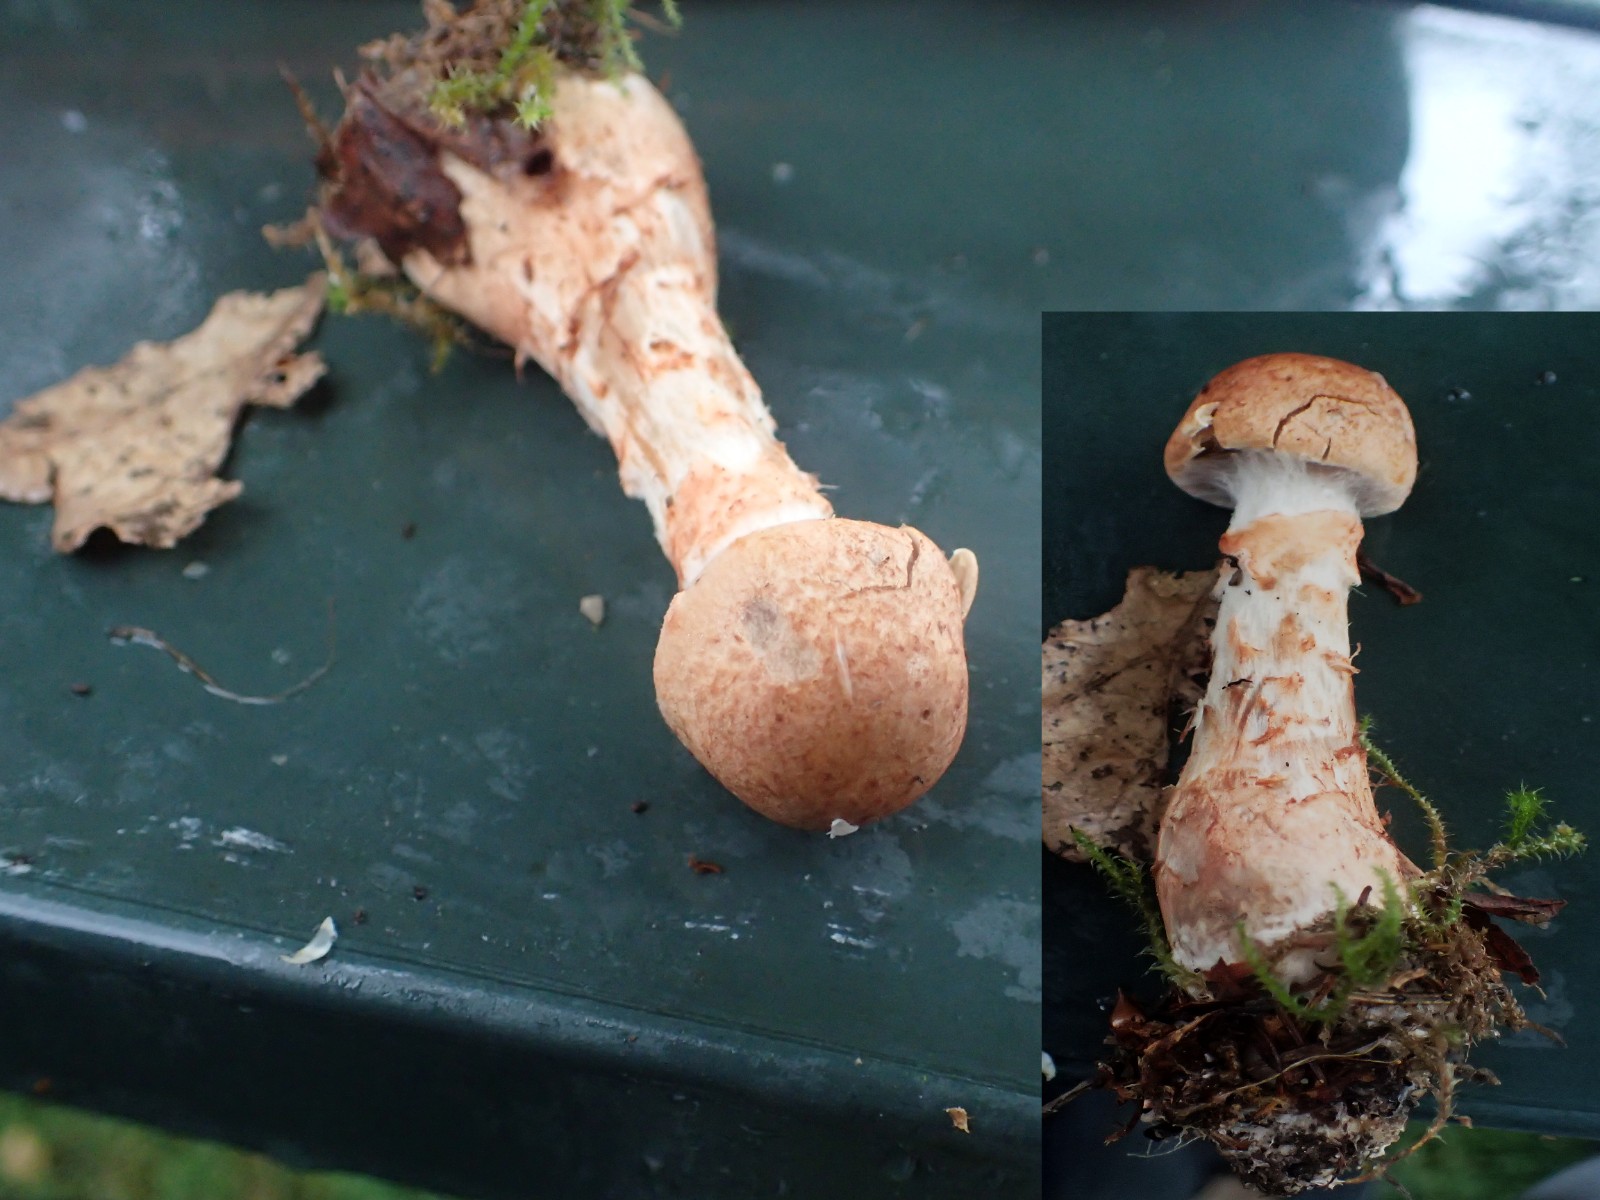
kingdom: Fungi
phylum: Basidiomycota
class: Agaricomycetes
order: Agaricales
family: Cortinariaceae
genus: Cortinarius
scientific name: Cortinarius armillatus
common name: cinnoberbæltet slørhat
